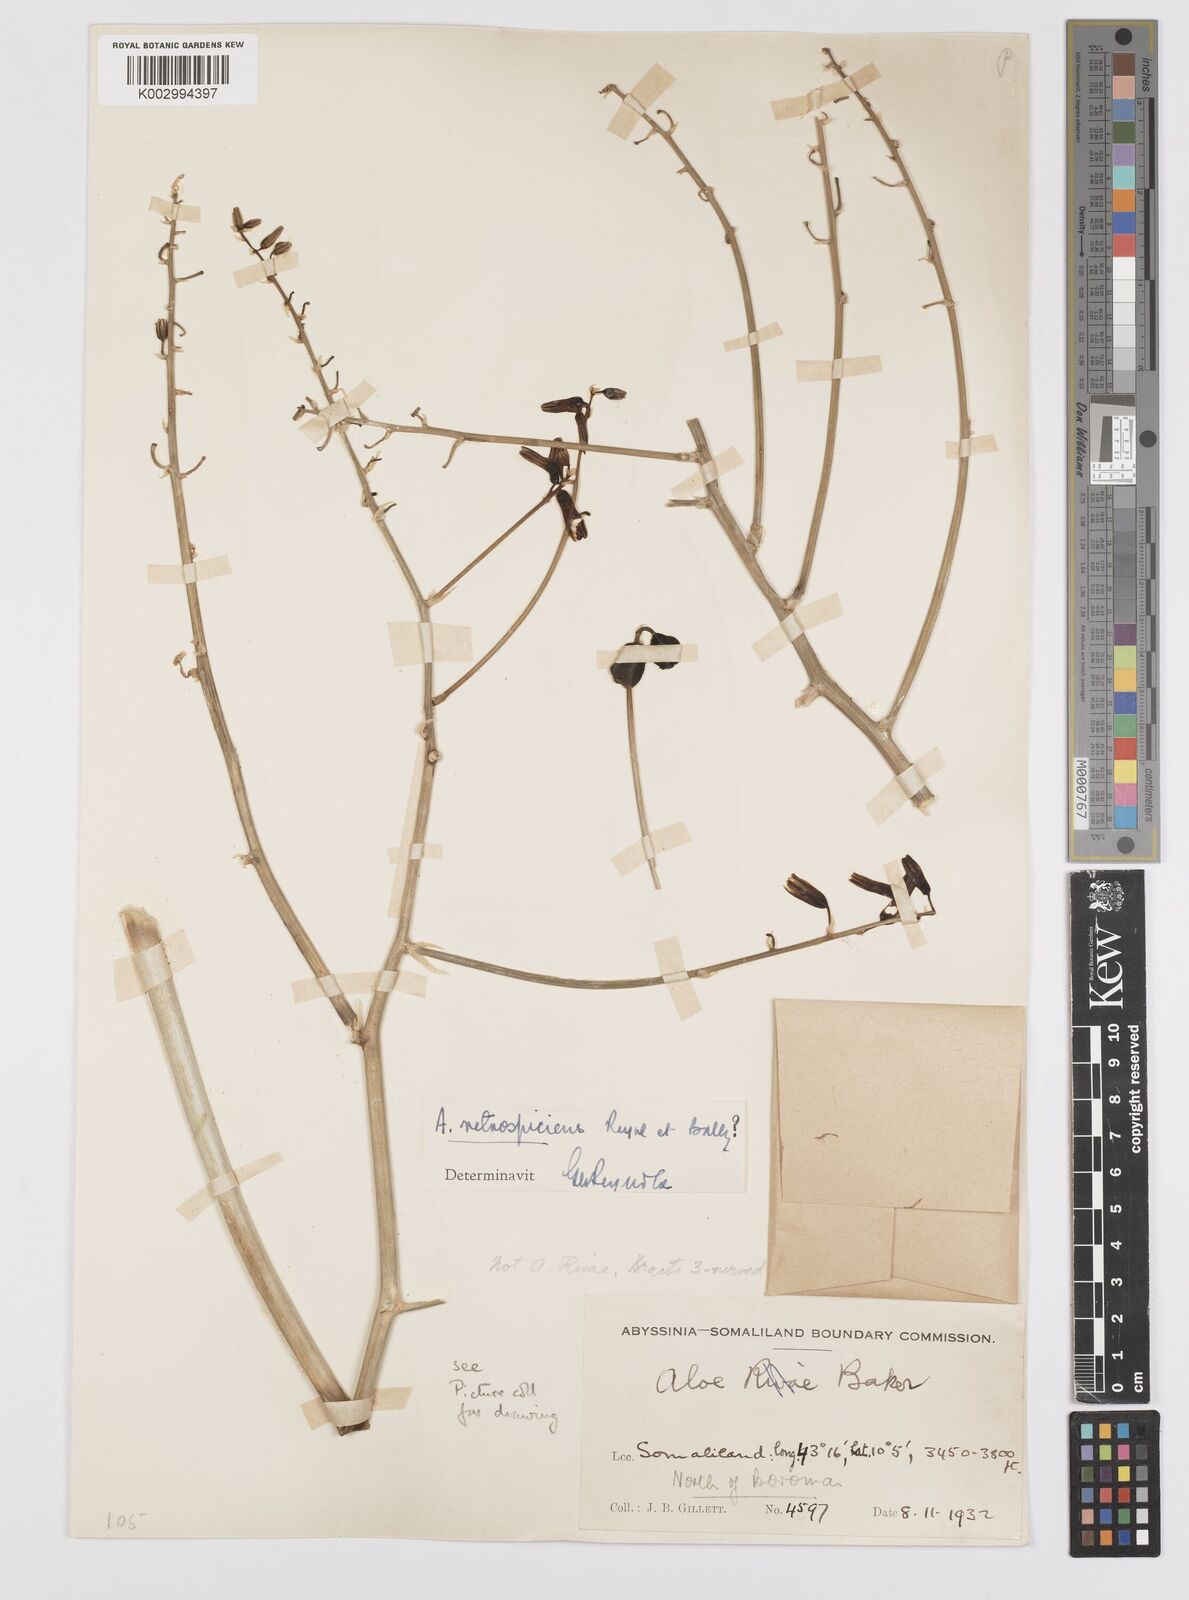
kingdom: Plantae
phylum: Tracheophyta
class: Liliopsida
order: Asparagales
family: Asphodelaceae
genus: Aloe
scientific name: Aloe retrospiciens
